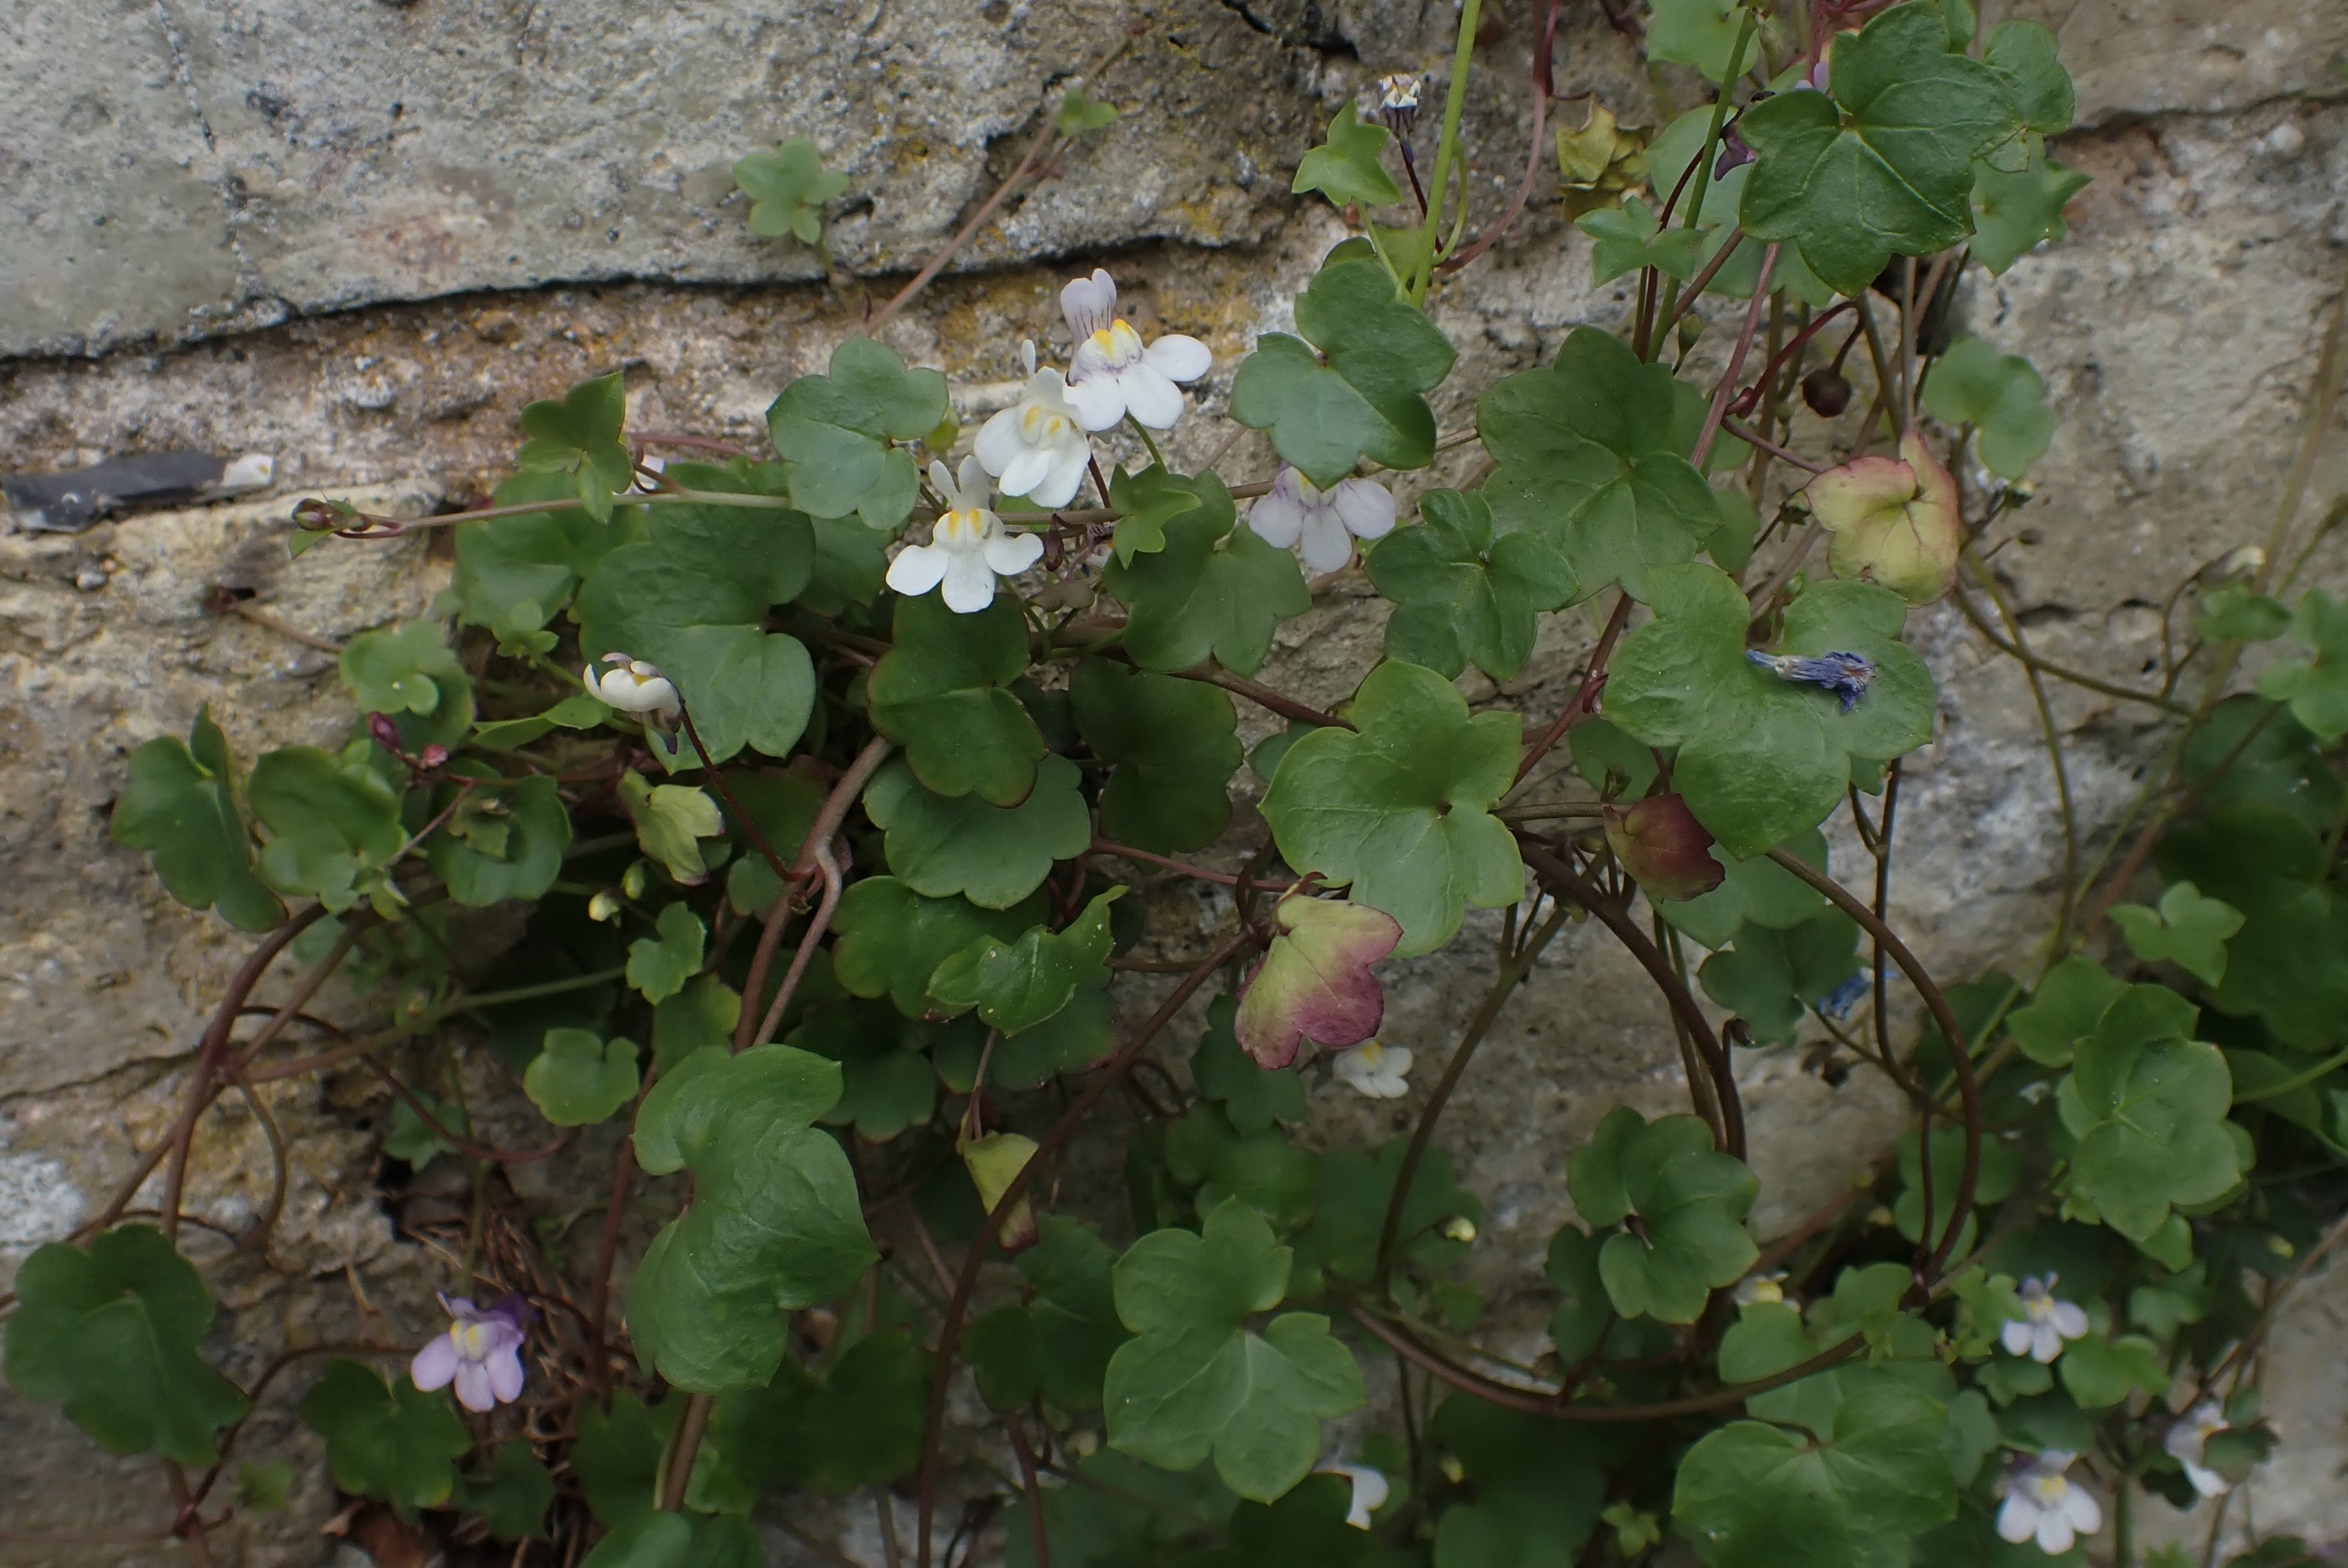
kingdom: Plantae
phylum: Tracheophyta
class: Magnoliopsida
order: Lamiales
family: Plantaginaceae
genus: Cymbalaria
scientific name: Cymbalaria muralis
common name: Vedbend-torskemund
